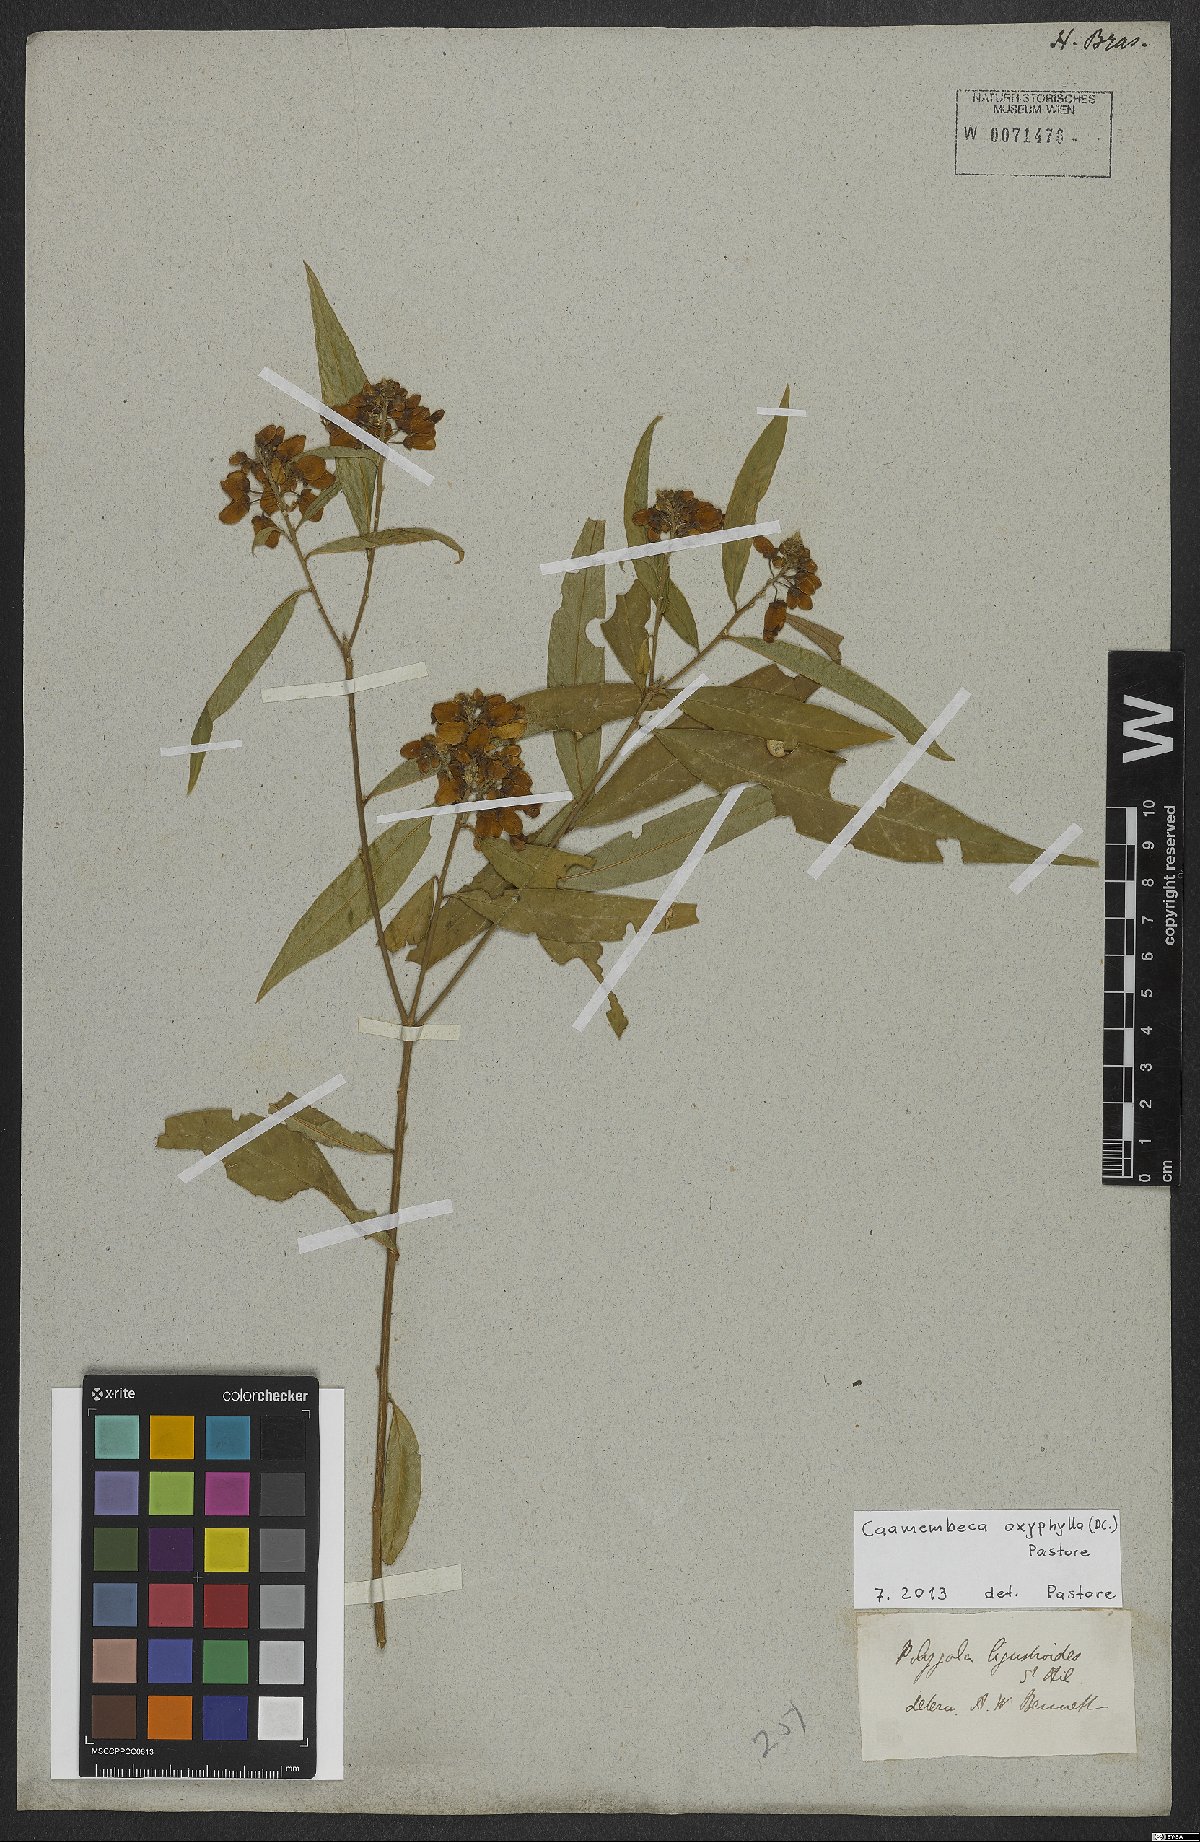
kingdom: Plantae
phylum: Tracheophyta
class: Magnoliopsida
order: Fabales
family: Polygalaceae
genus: Caamembeca
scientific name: Caamembeca oxyphylla
